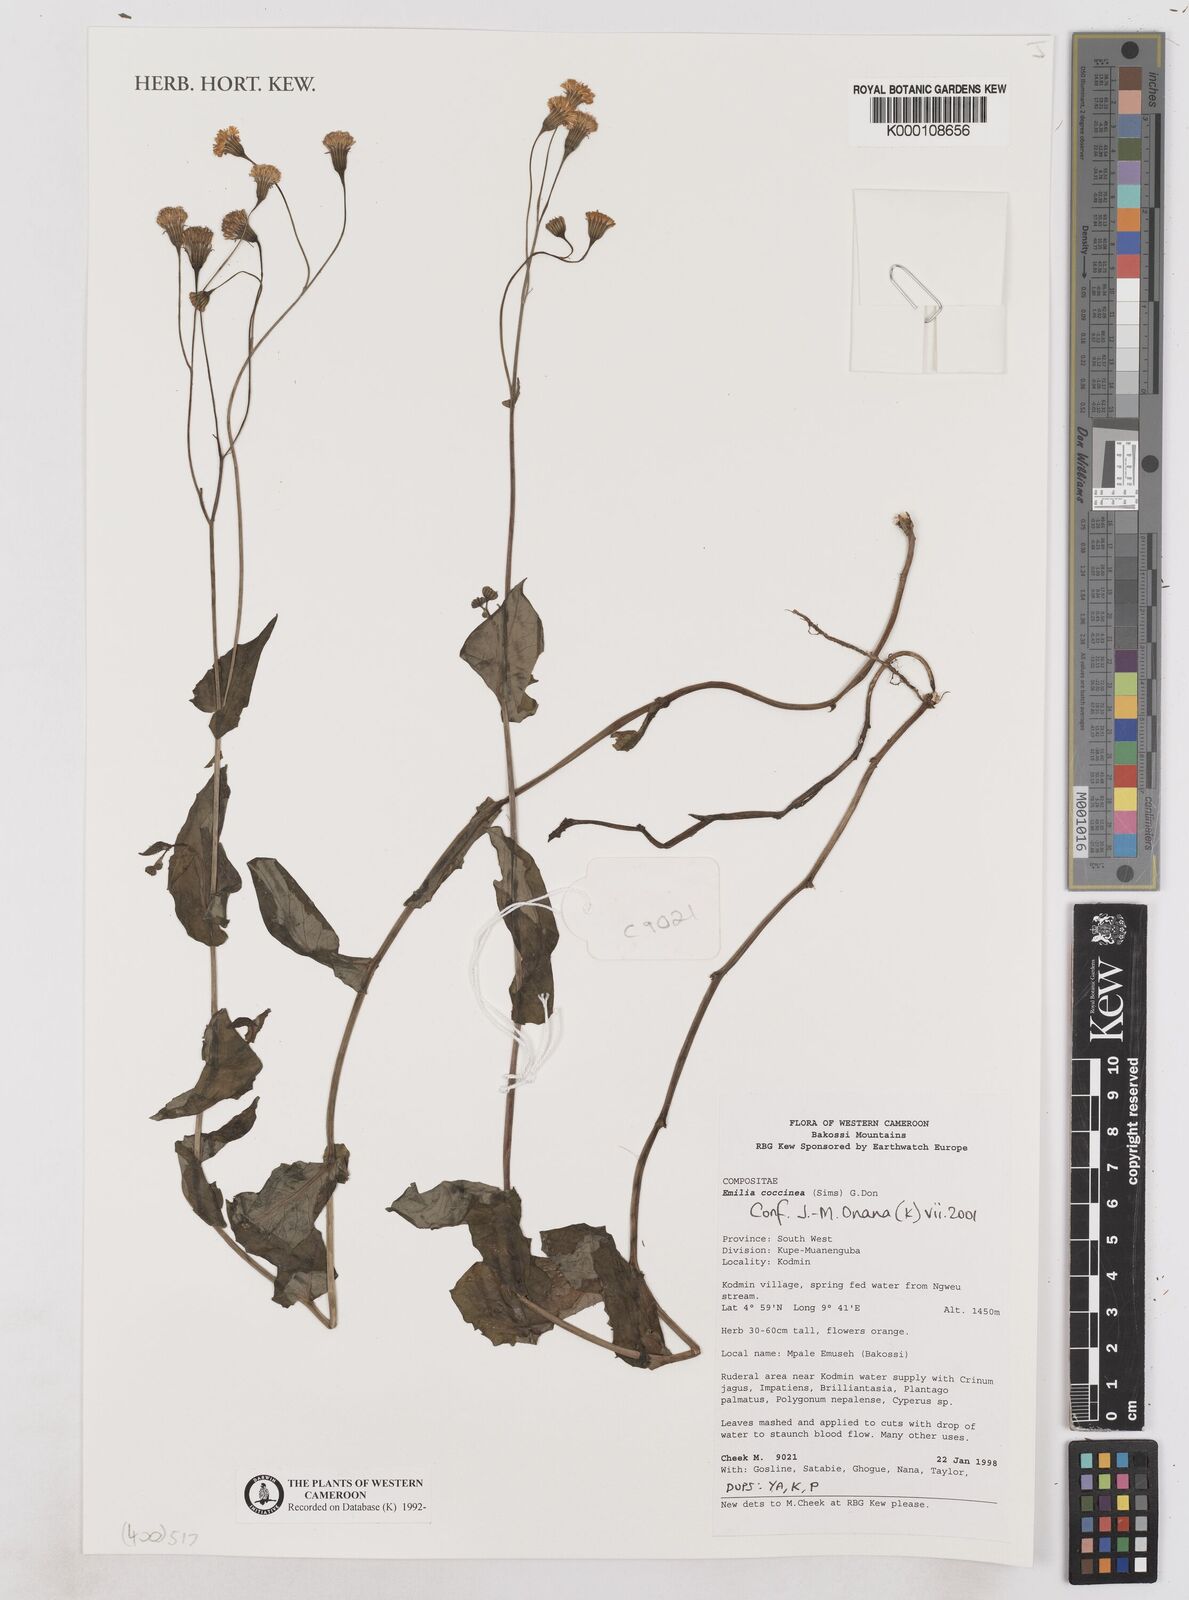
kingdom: Plantae
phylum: Tracheophyta
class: Magnoliopsida
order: Asterales
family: Asteraceae
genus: Emilia
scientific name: Emilia coccinea
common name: Scarlet tasselflower
